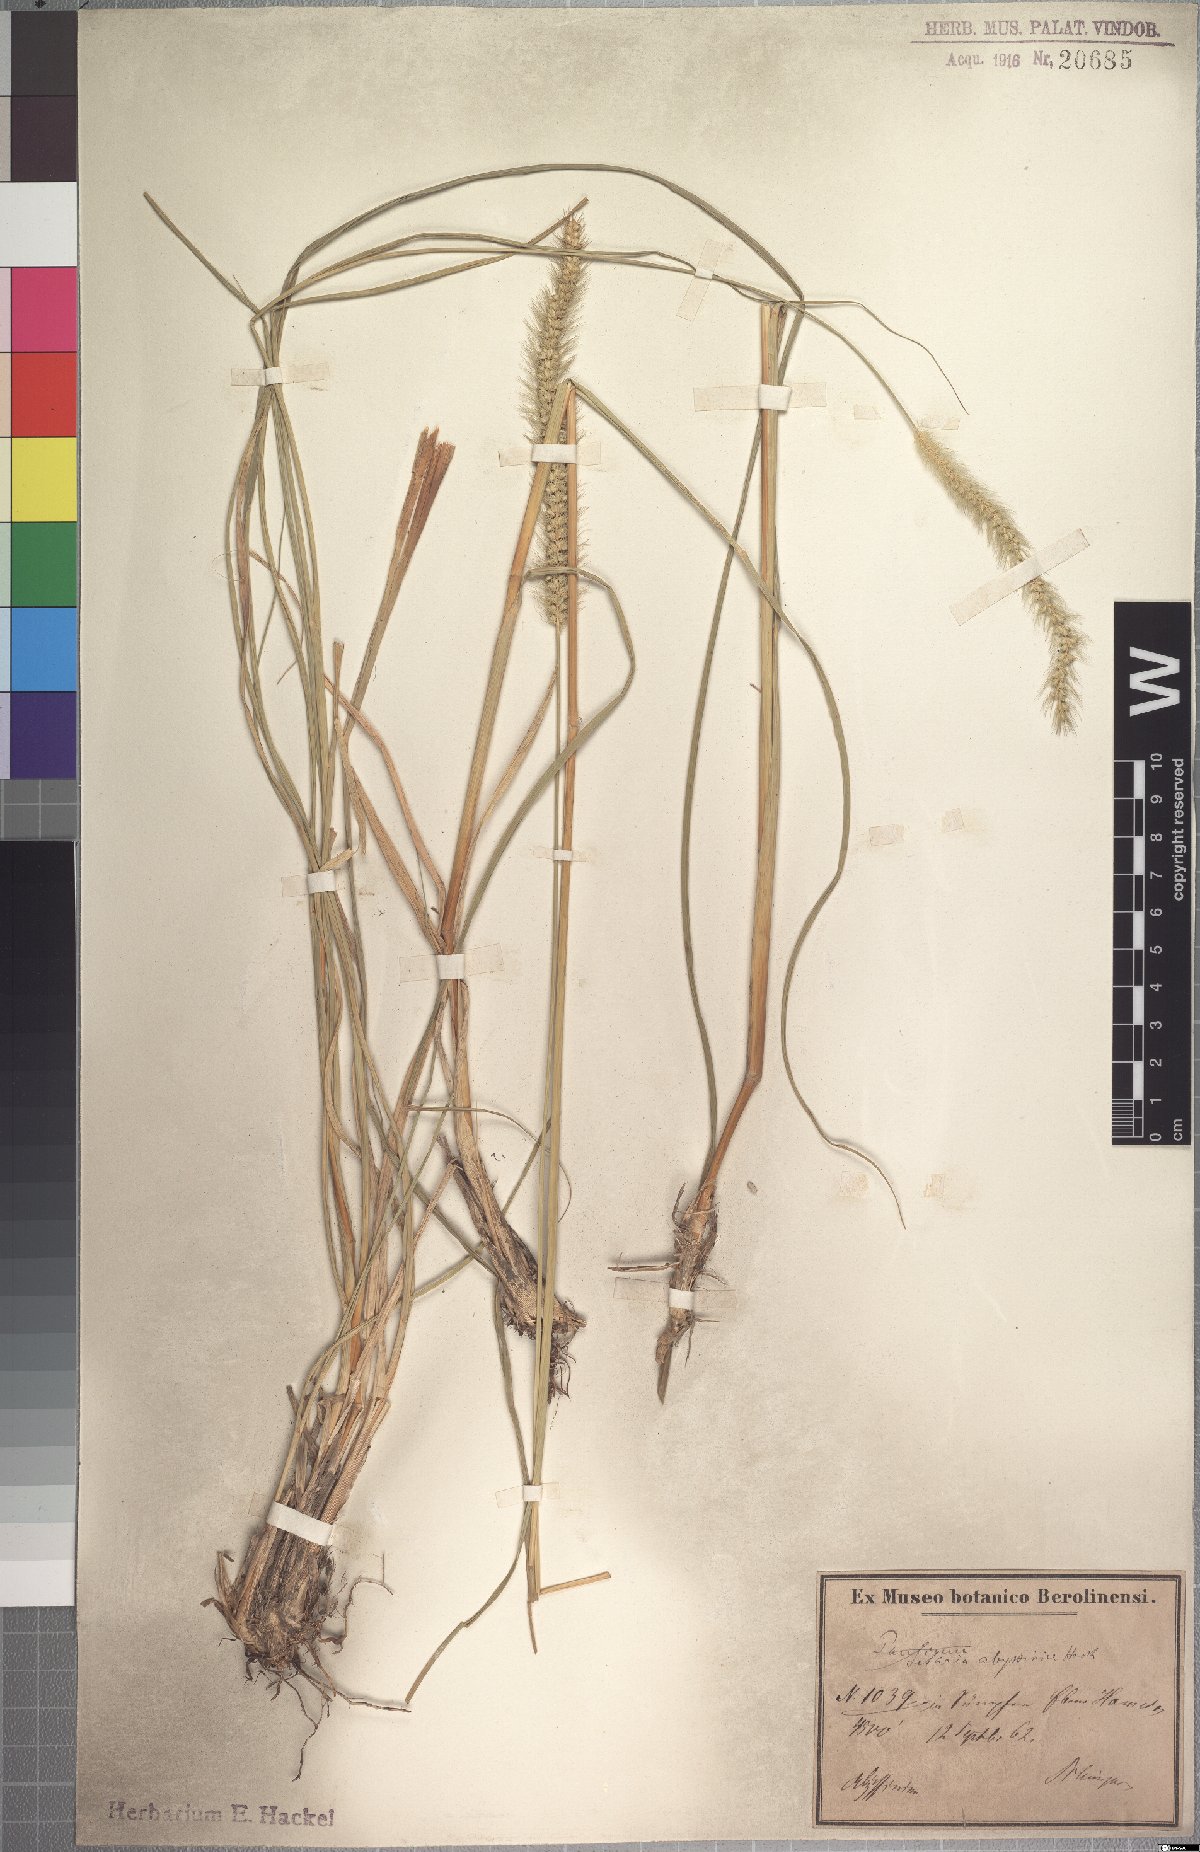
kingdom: Plantae
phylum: Tracheophyta
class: Liliopsida
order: Poales
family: Poaceae
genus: Setaria
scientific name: Setaria incrassata
